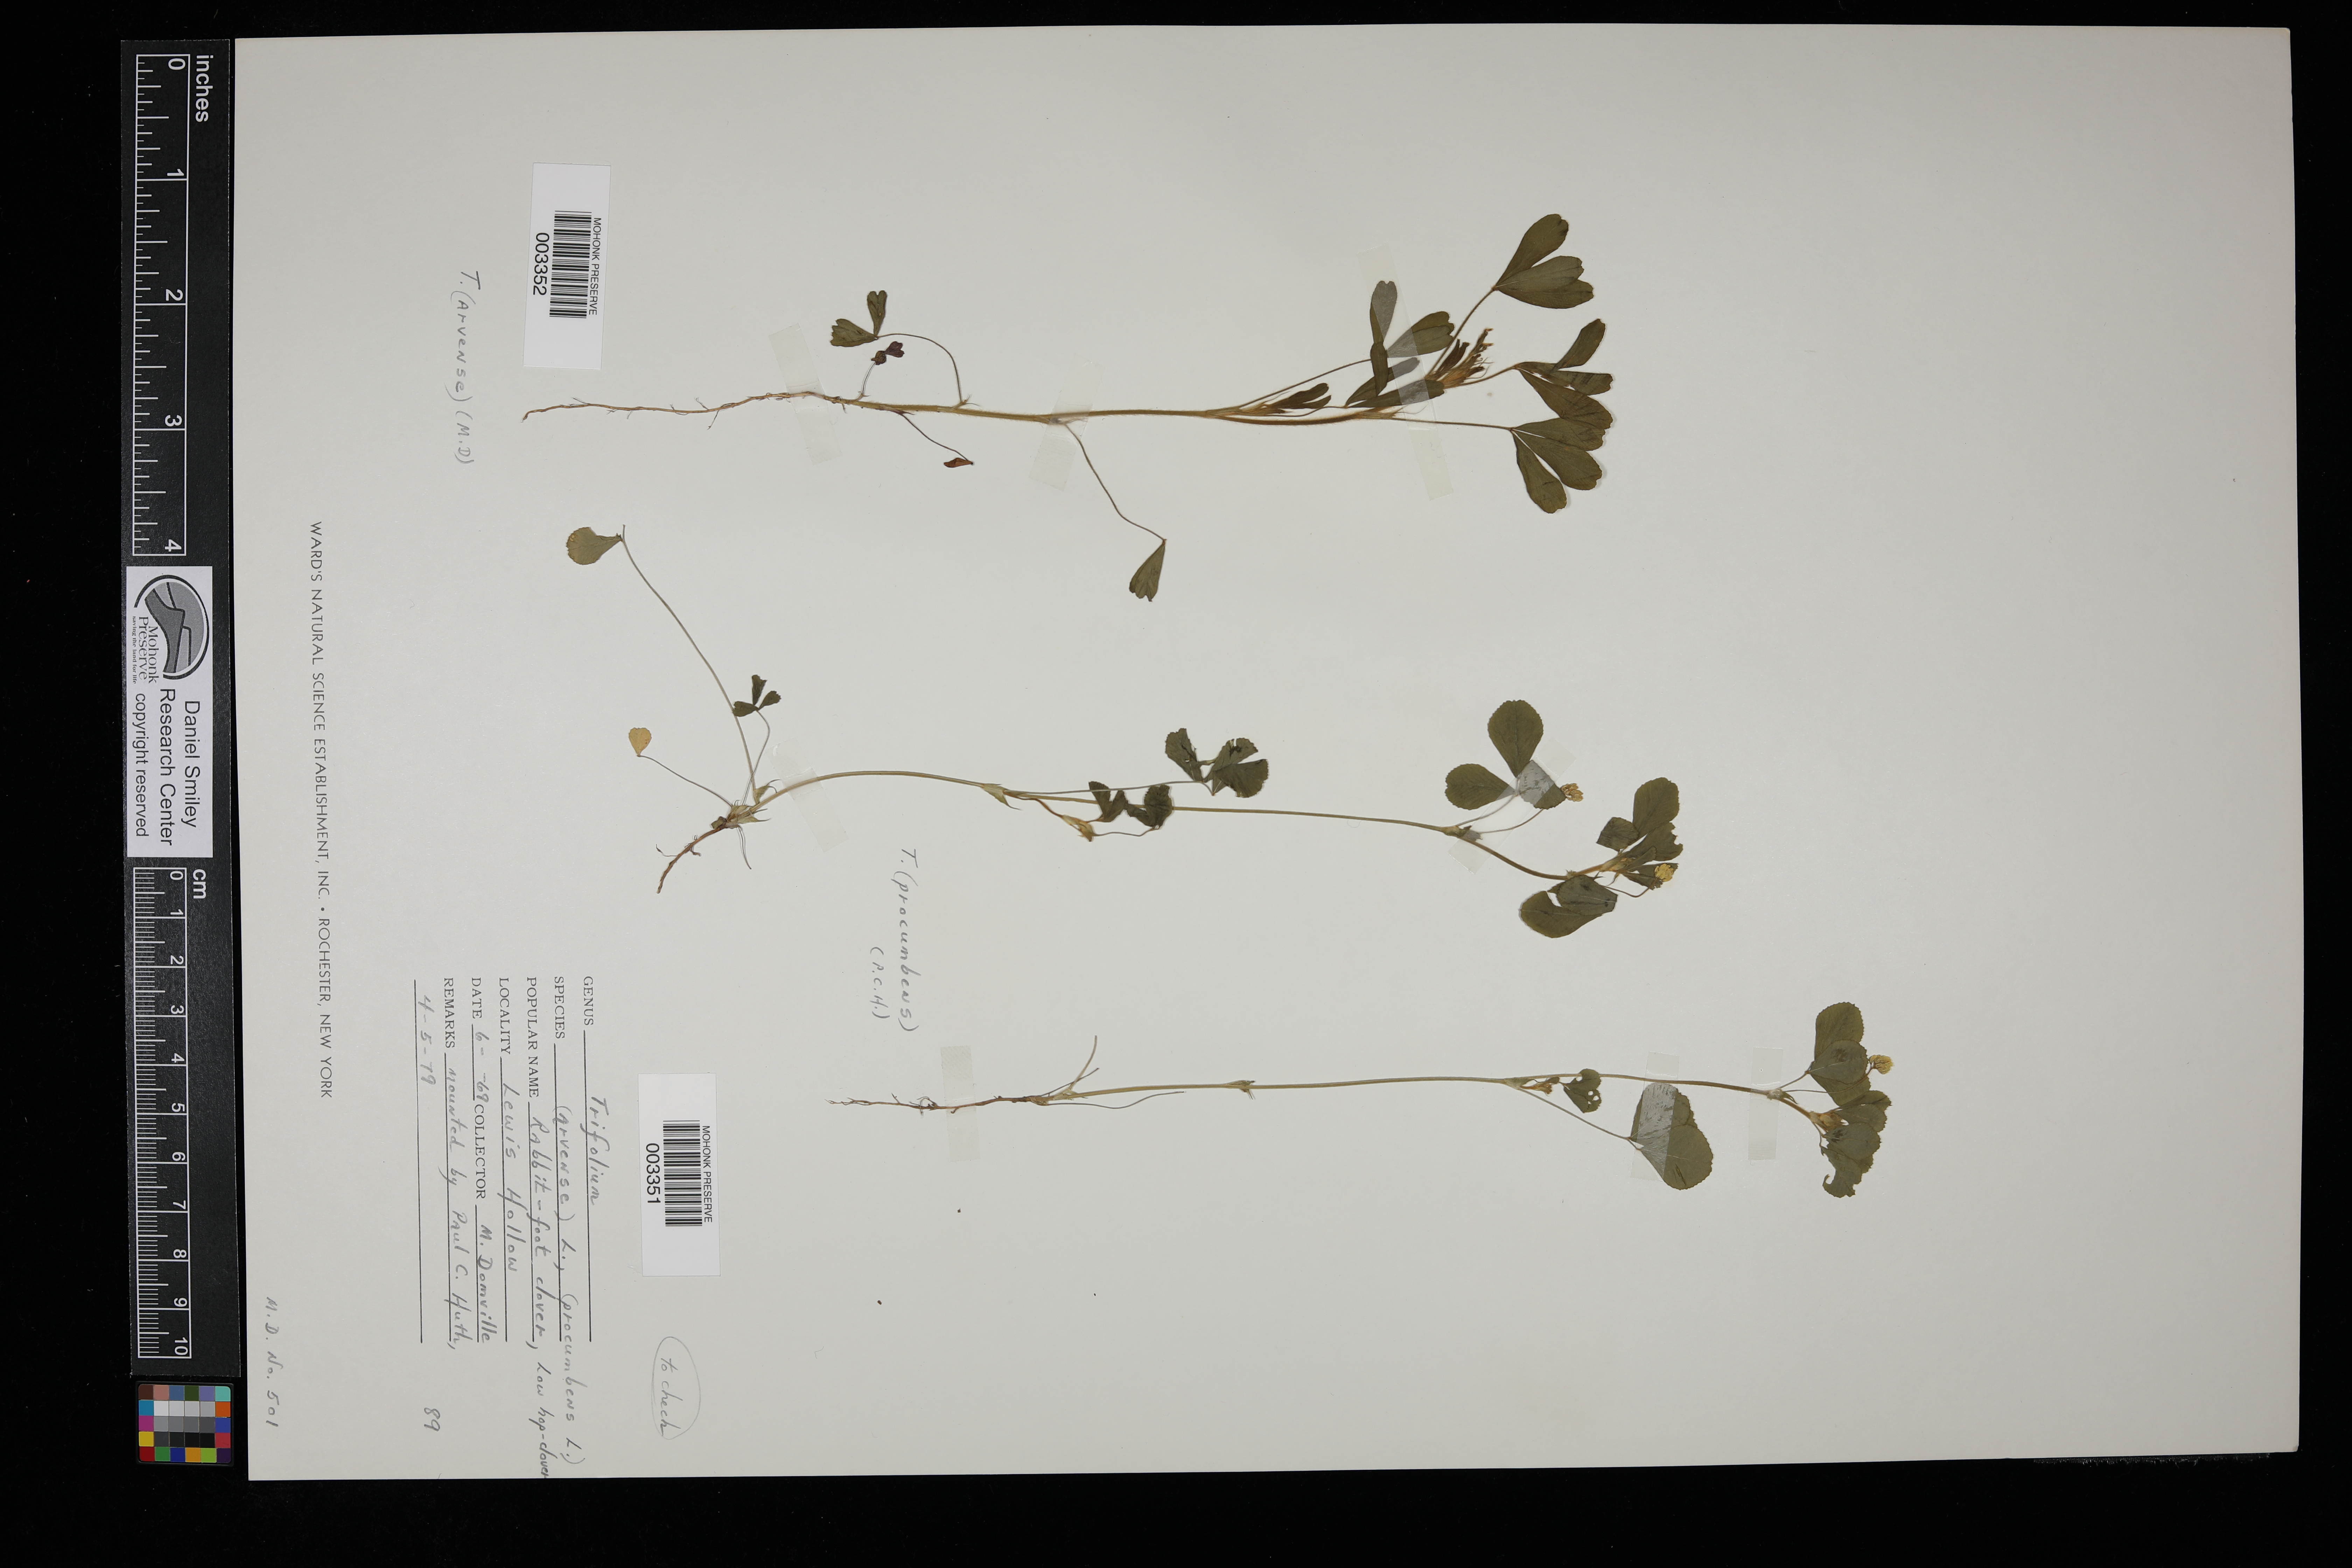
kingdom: Plantae
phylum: Tracheophyta
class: Magnoliopsida
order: Fabales
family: Fabaceae
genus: Trifolium
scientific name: Trifolium arvense
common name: Hare's-foot clover
